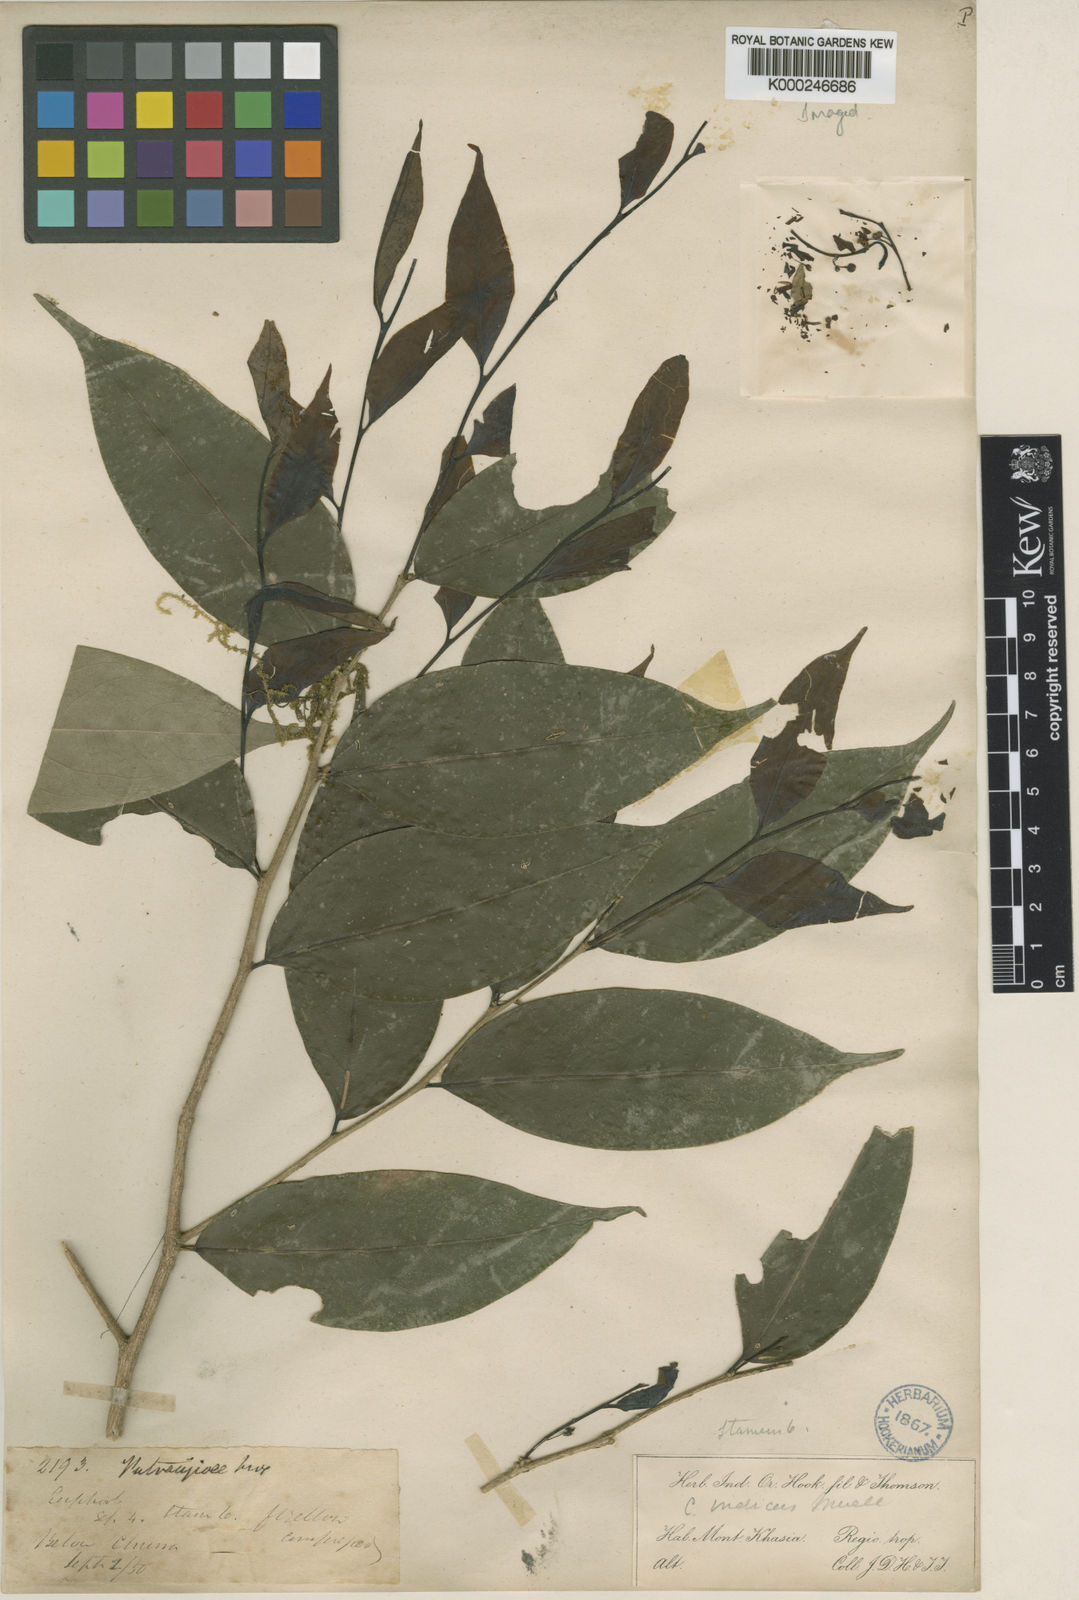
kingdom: Plantae
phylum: Tracheophyta
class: Magnoliopsida
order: Malpighiales
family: Putranjivaceae
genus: Drypetes
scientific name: Drypetes
